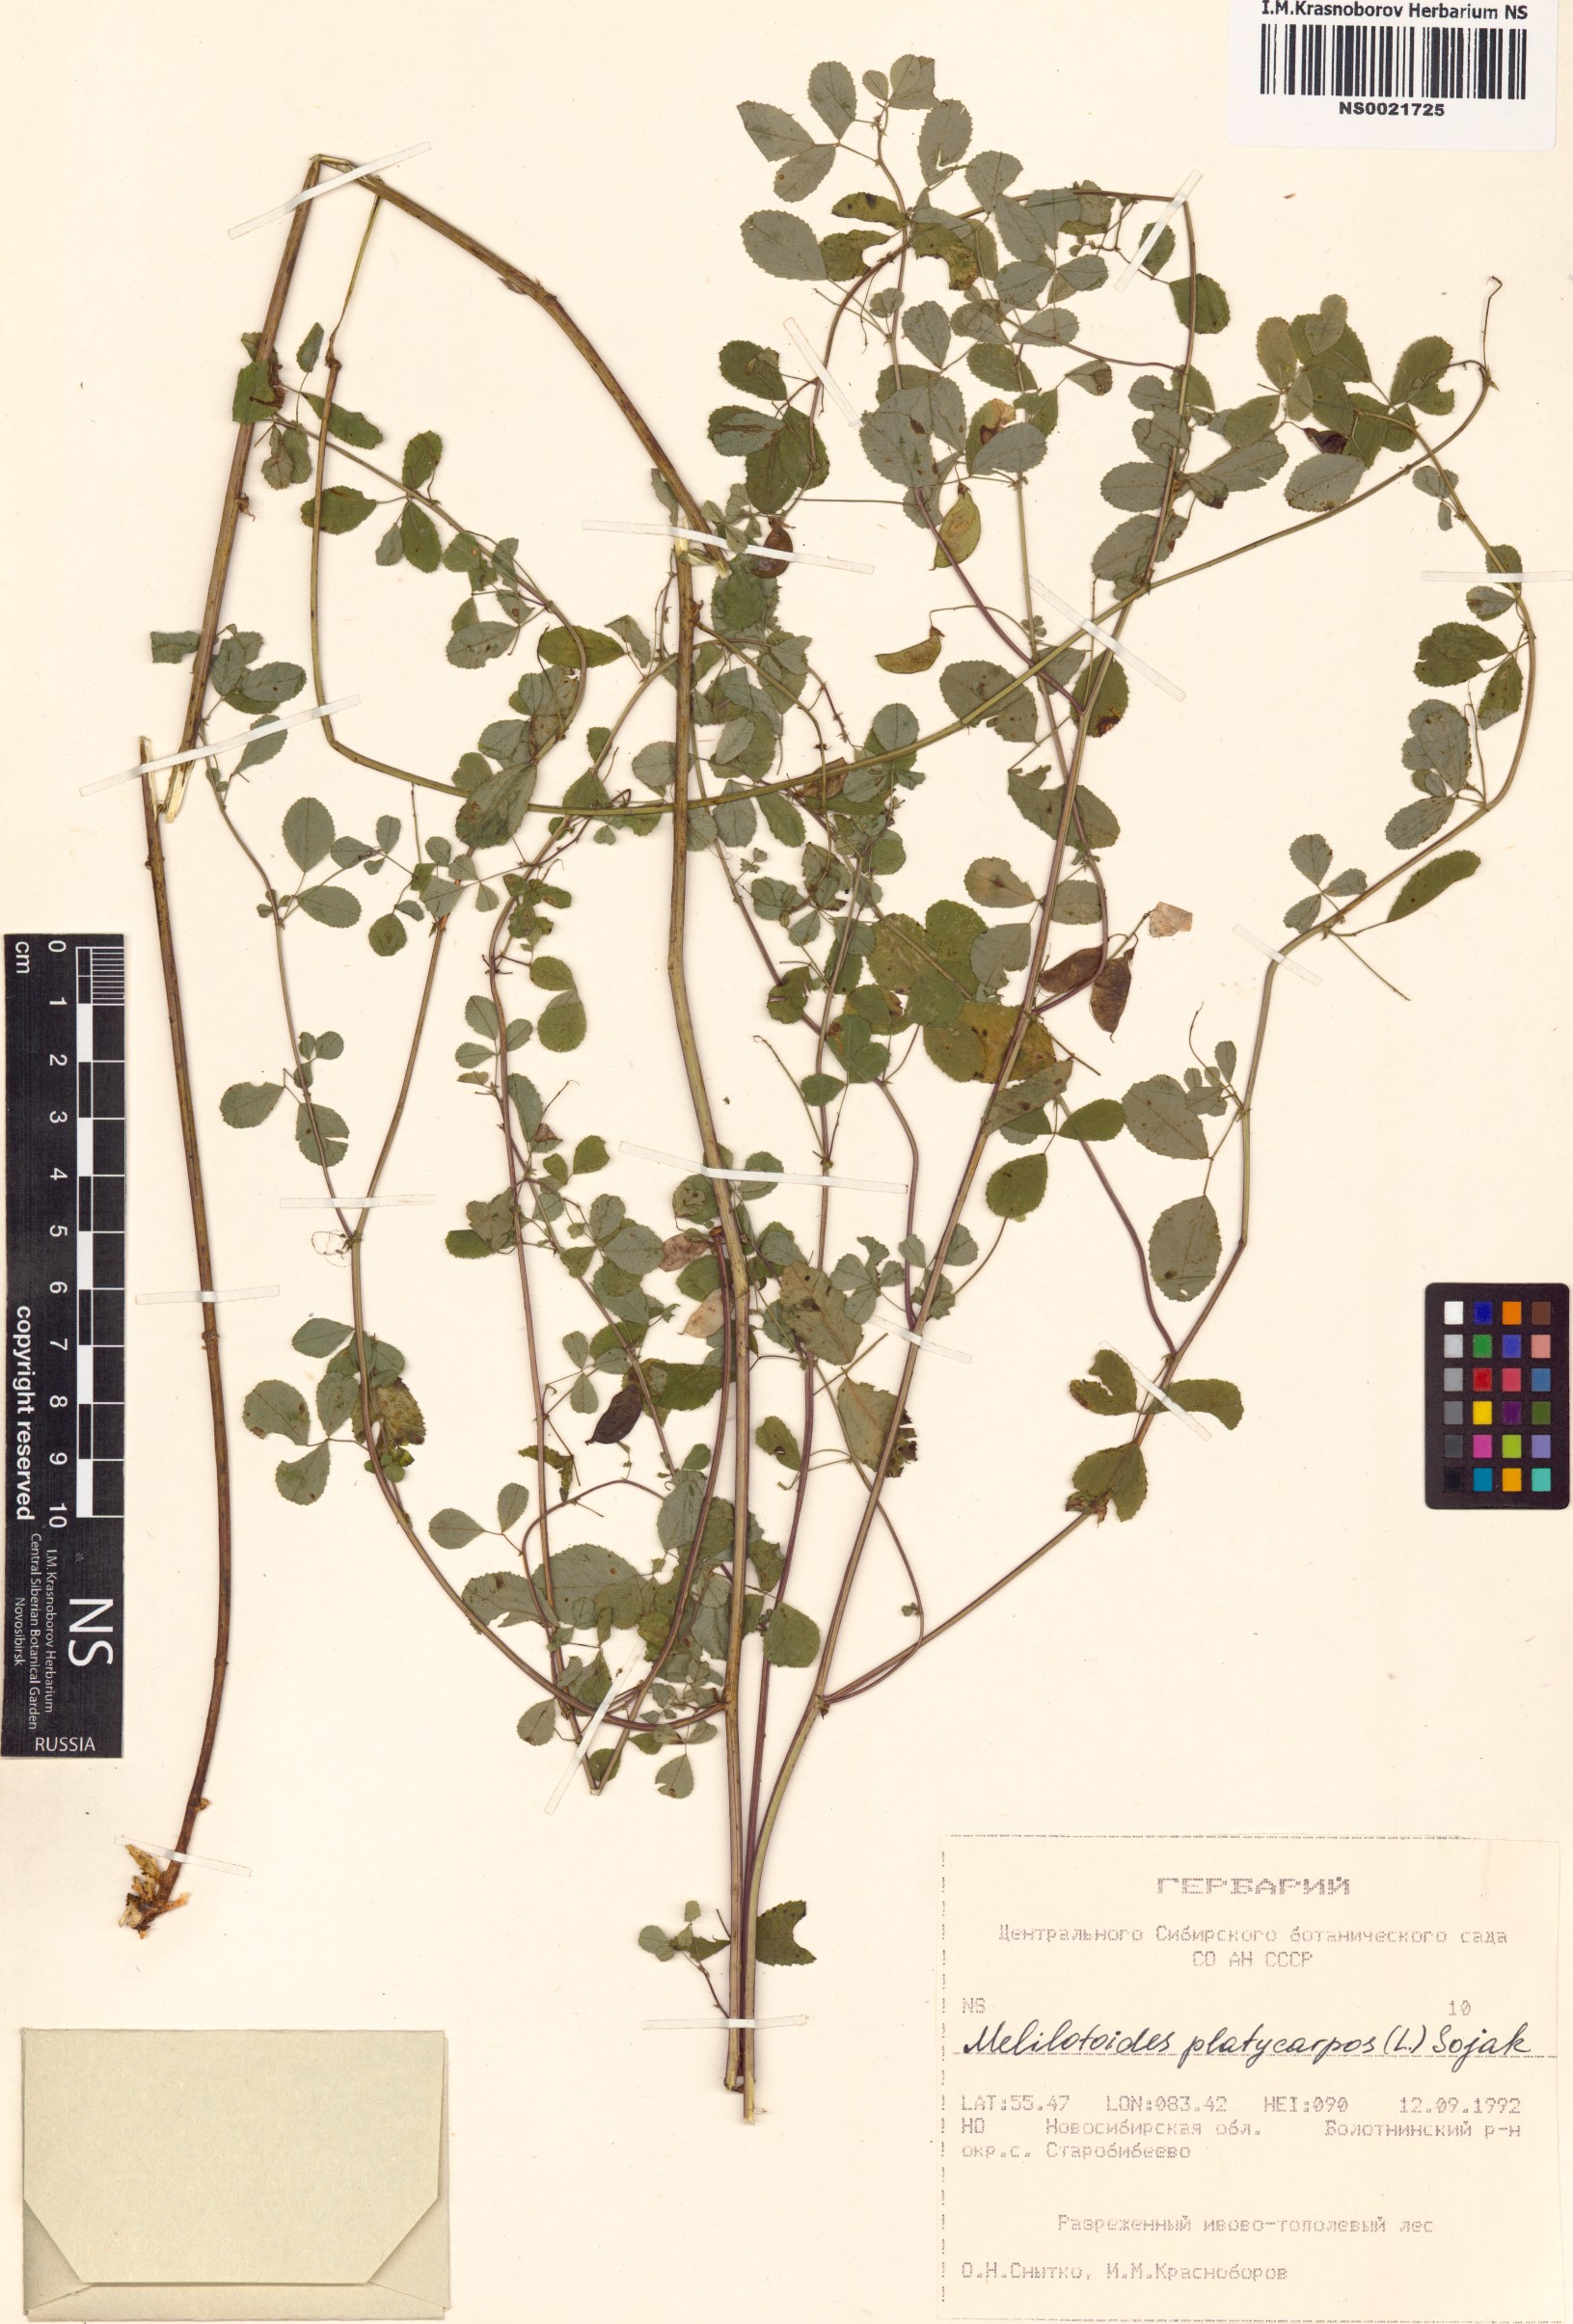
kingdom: Plantae
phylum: Tracheophyta
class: Magnoliopsida
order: Fabales
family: Fabaceae
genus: Medicago
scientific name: Medicago platycarpos
